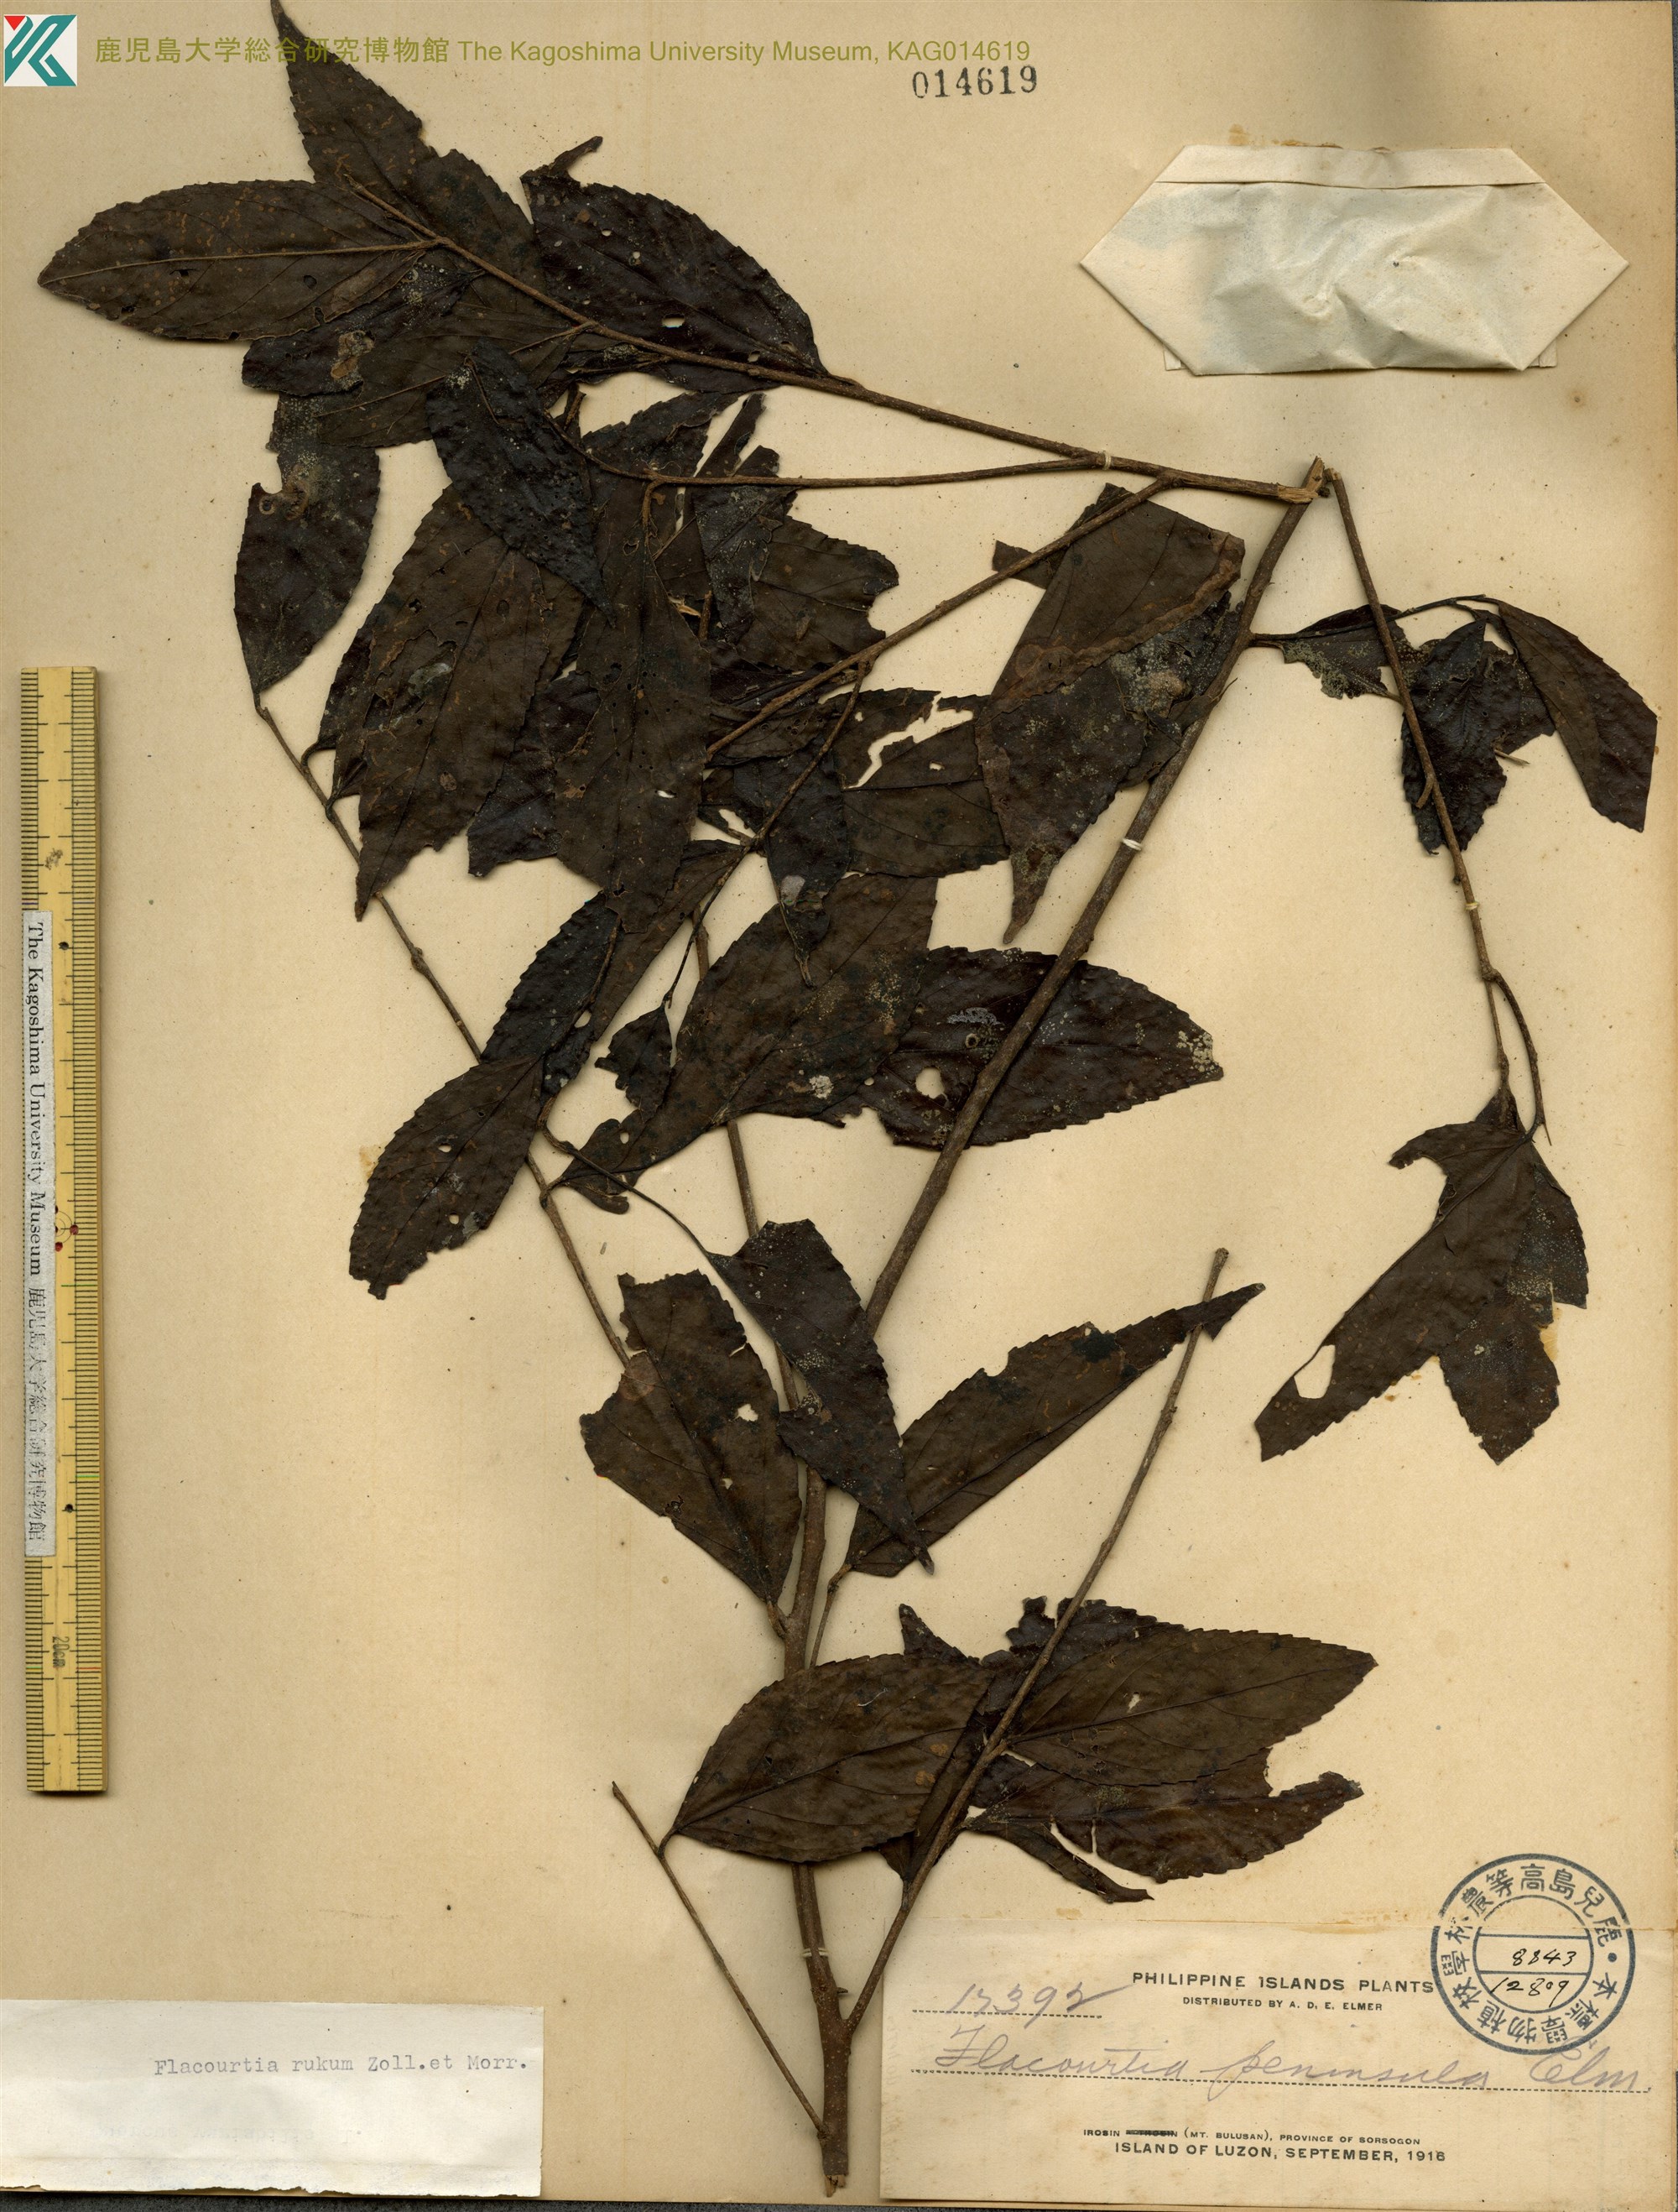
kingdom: Plantae
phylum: Tracheophyta
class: Magnoliopsida
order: Malpighiales
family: Salicaceae
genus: Flacourtia
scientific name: Flacourtia rukam
